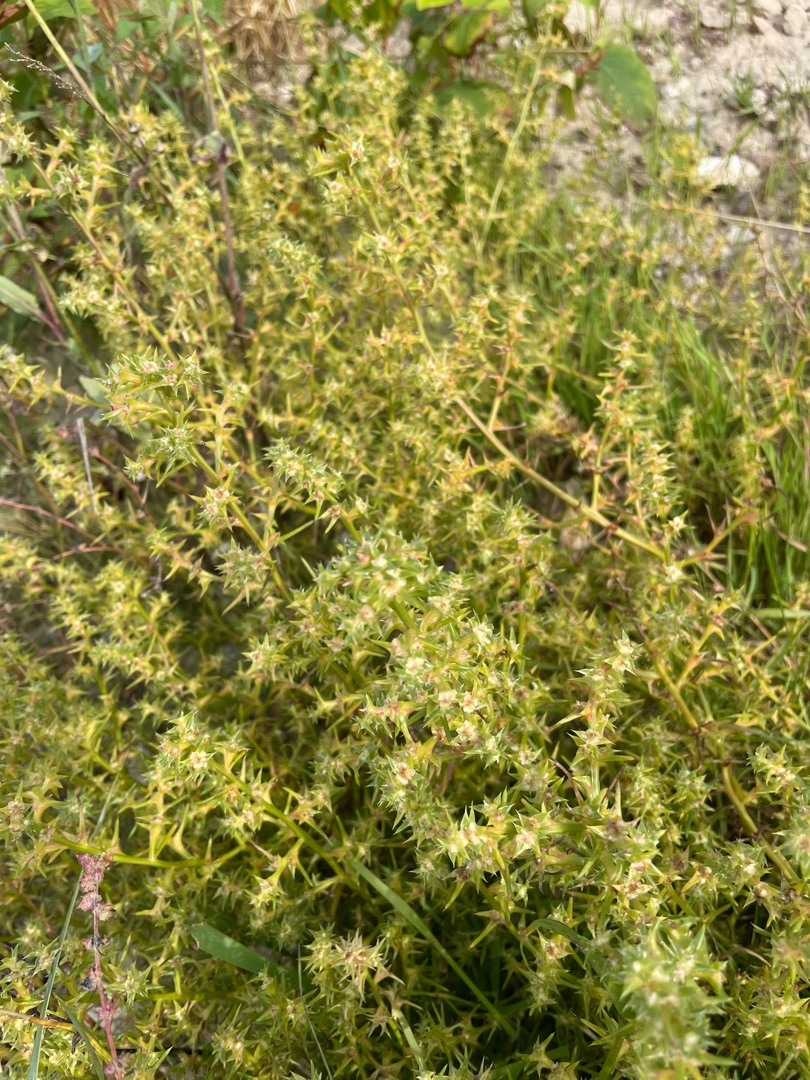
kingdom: Plantae
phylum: Tracheophyta
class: Magnoliopsida
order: Caryophyllales
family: Amaranthaceae
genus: Salsola
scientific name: Salsola kali
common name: Sodaurt
